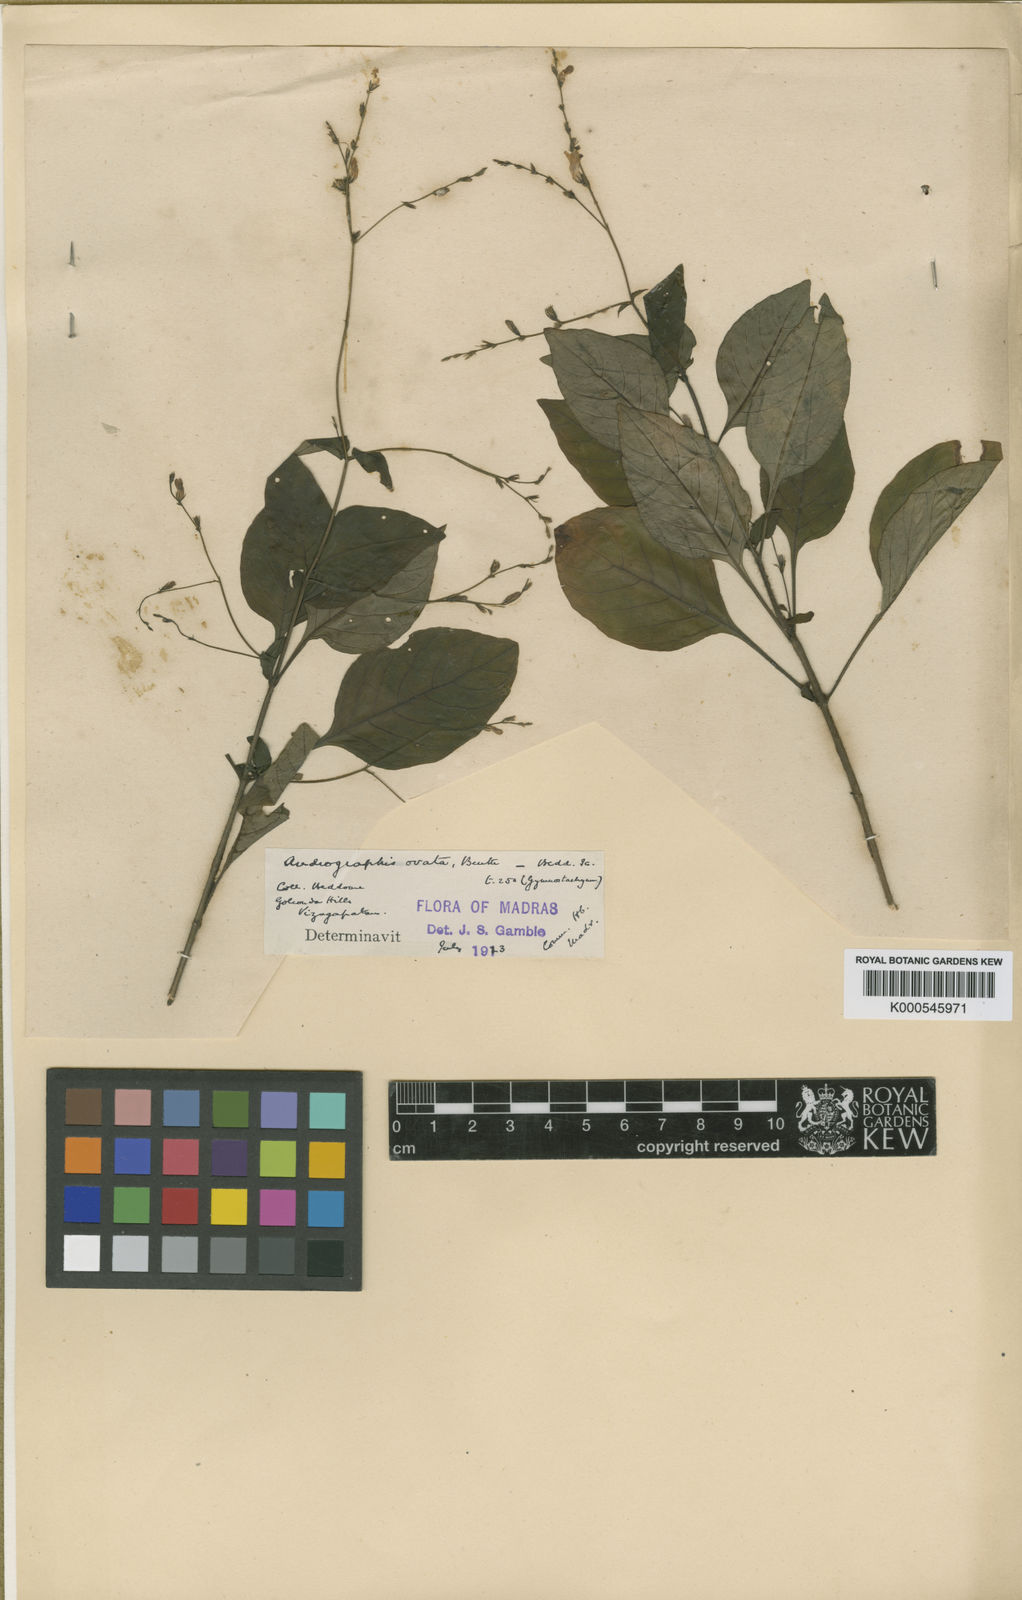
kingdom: Plantae
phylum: Tracheophyta
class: Magnoliopsida
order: Lamiales
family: Acanthaceae
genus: Andrographis
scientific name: Andrographis
